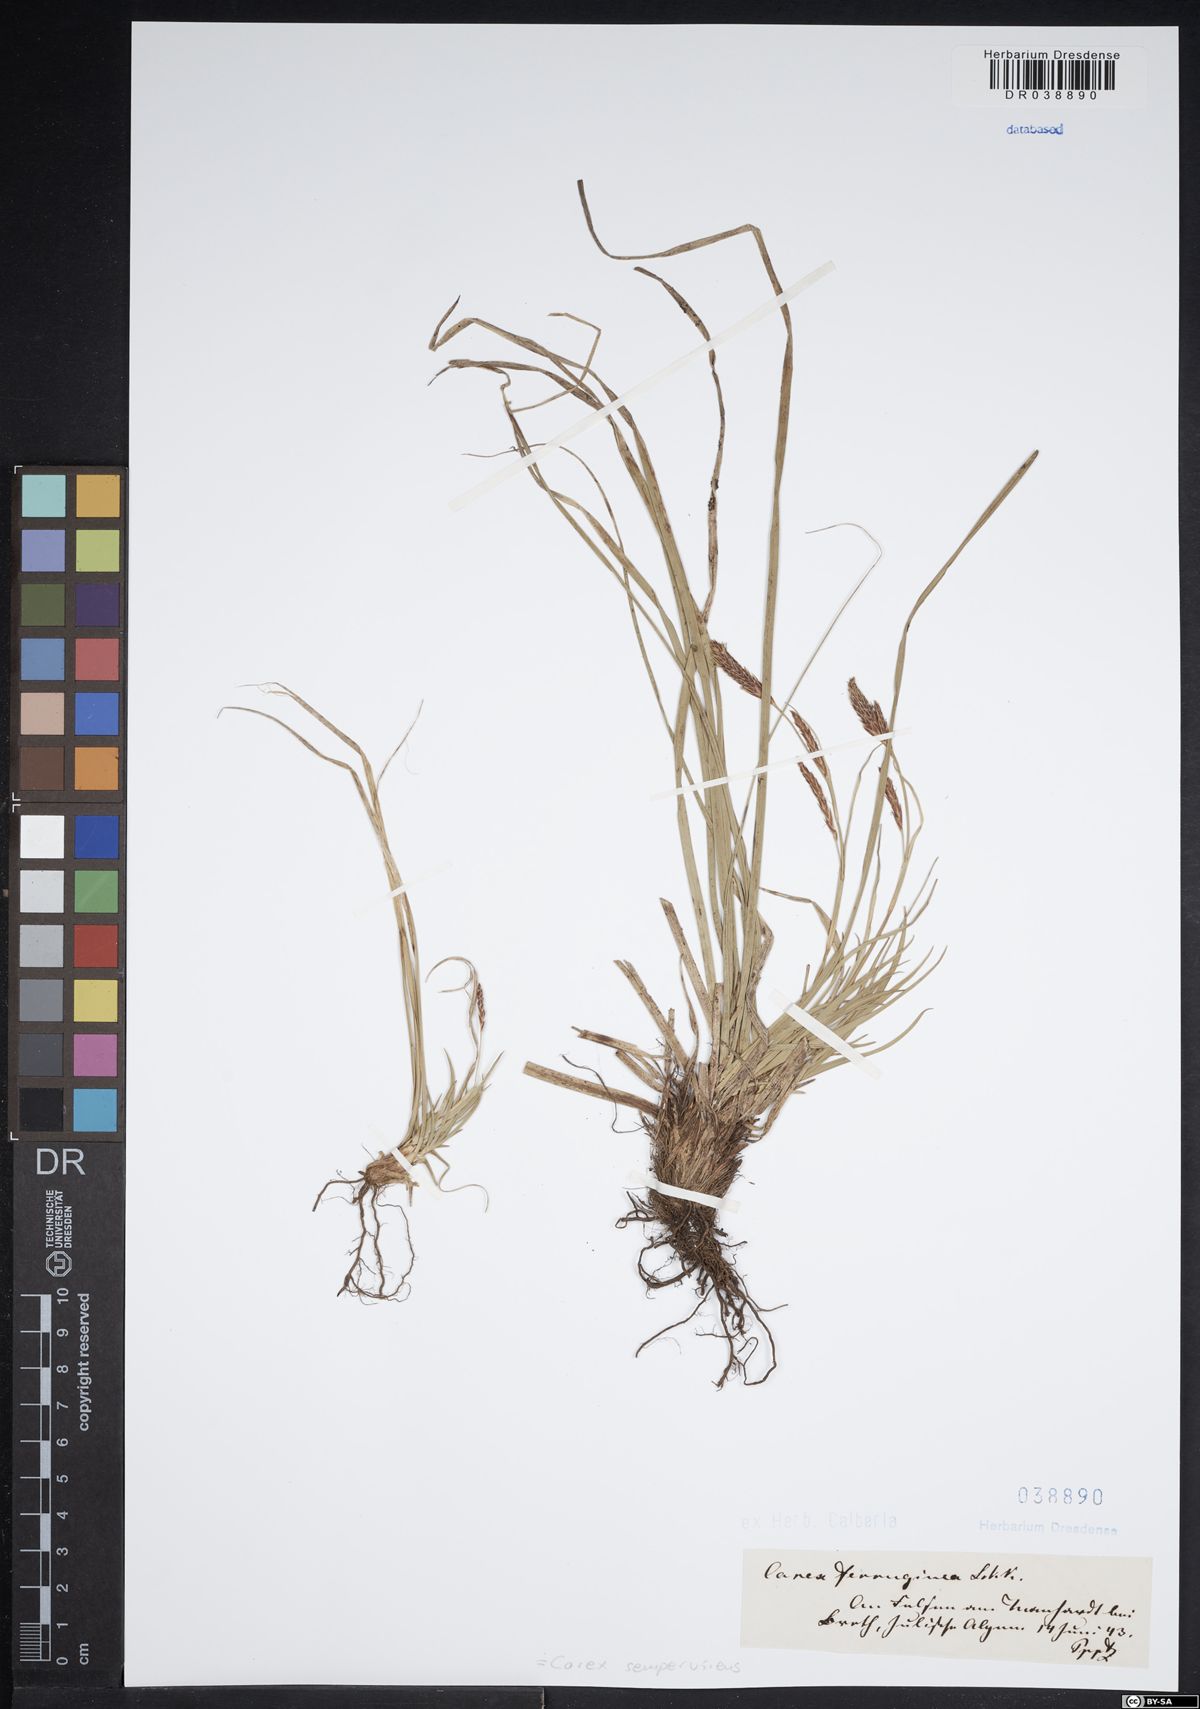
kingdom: Plantae
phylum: Tracheophyta
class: Liliopsida
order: Poales
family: Cyperaceae
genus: Carex
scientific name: Carex sempervirens
